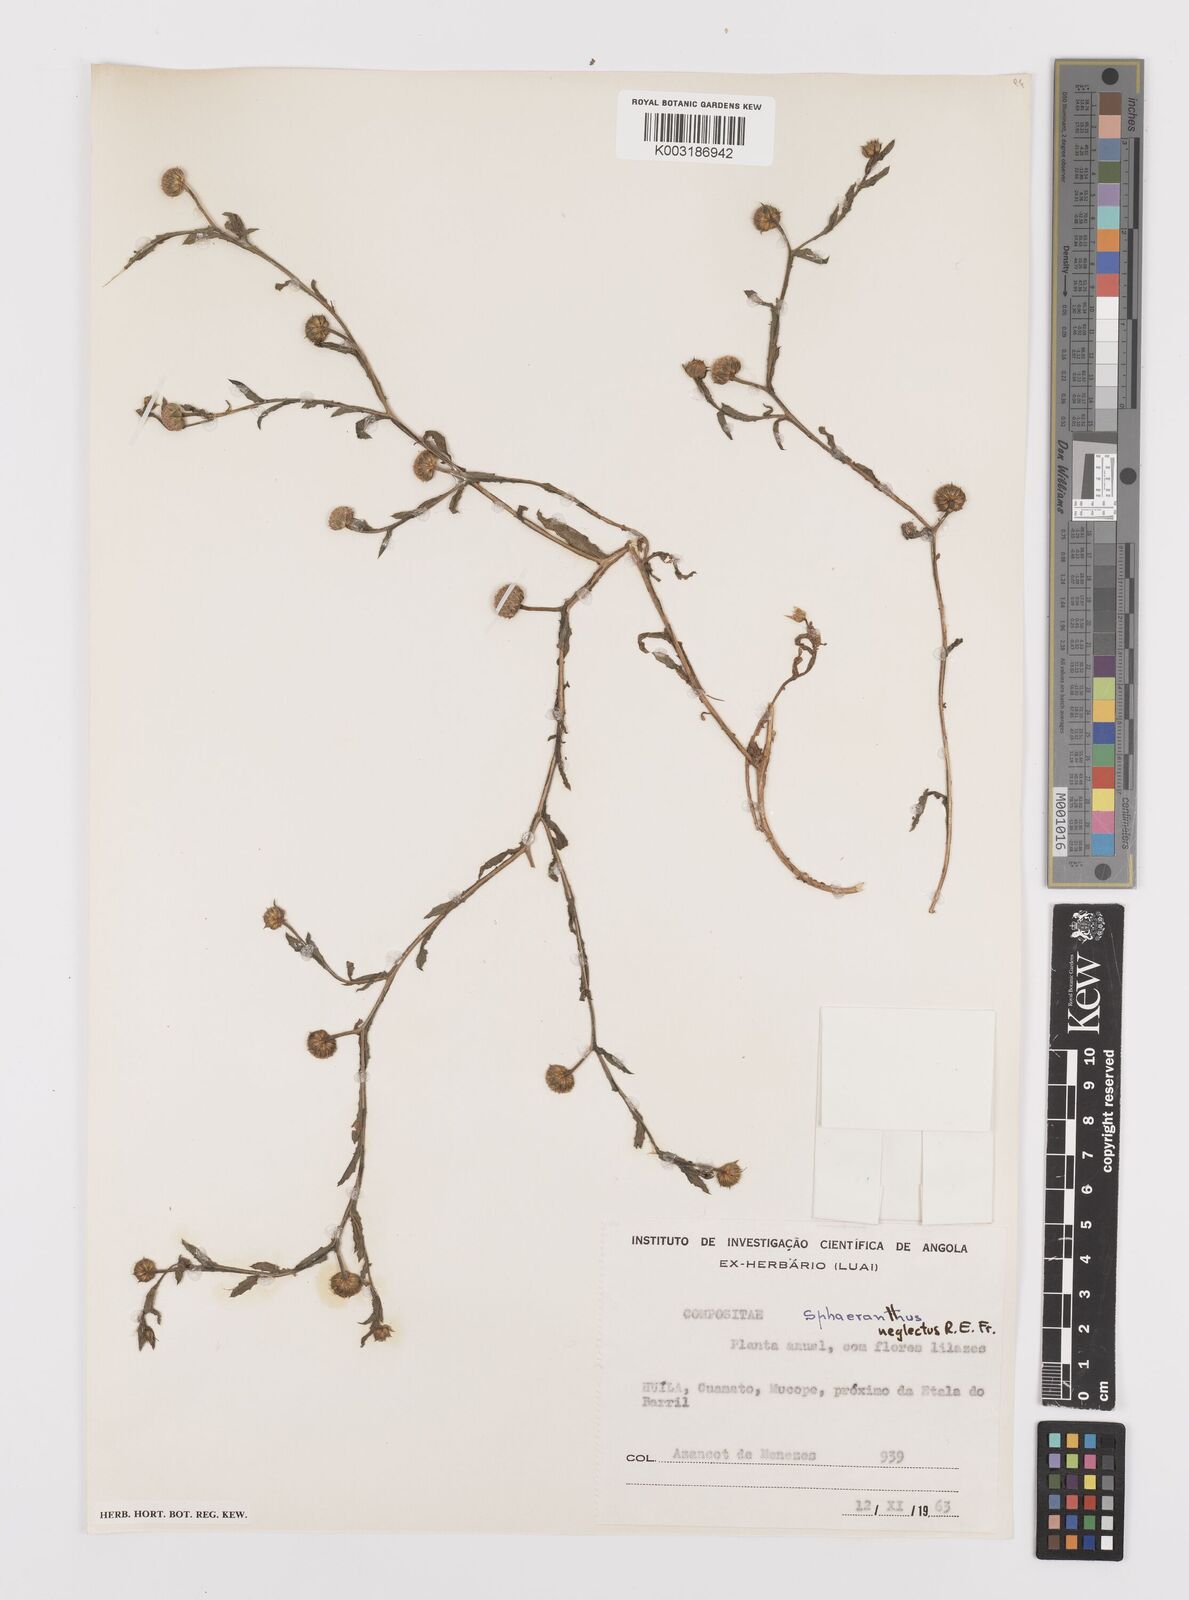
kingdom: Plantae
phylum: Tracheophyta
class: Magnoliopsida
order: Asterales
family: Asteraceae
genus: Sphaeranthus
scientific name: Sphaeranthus neglectus
